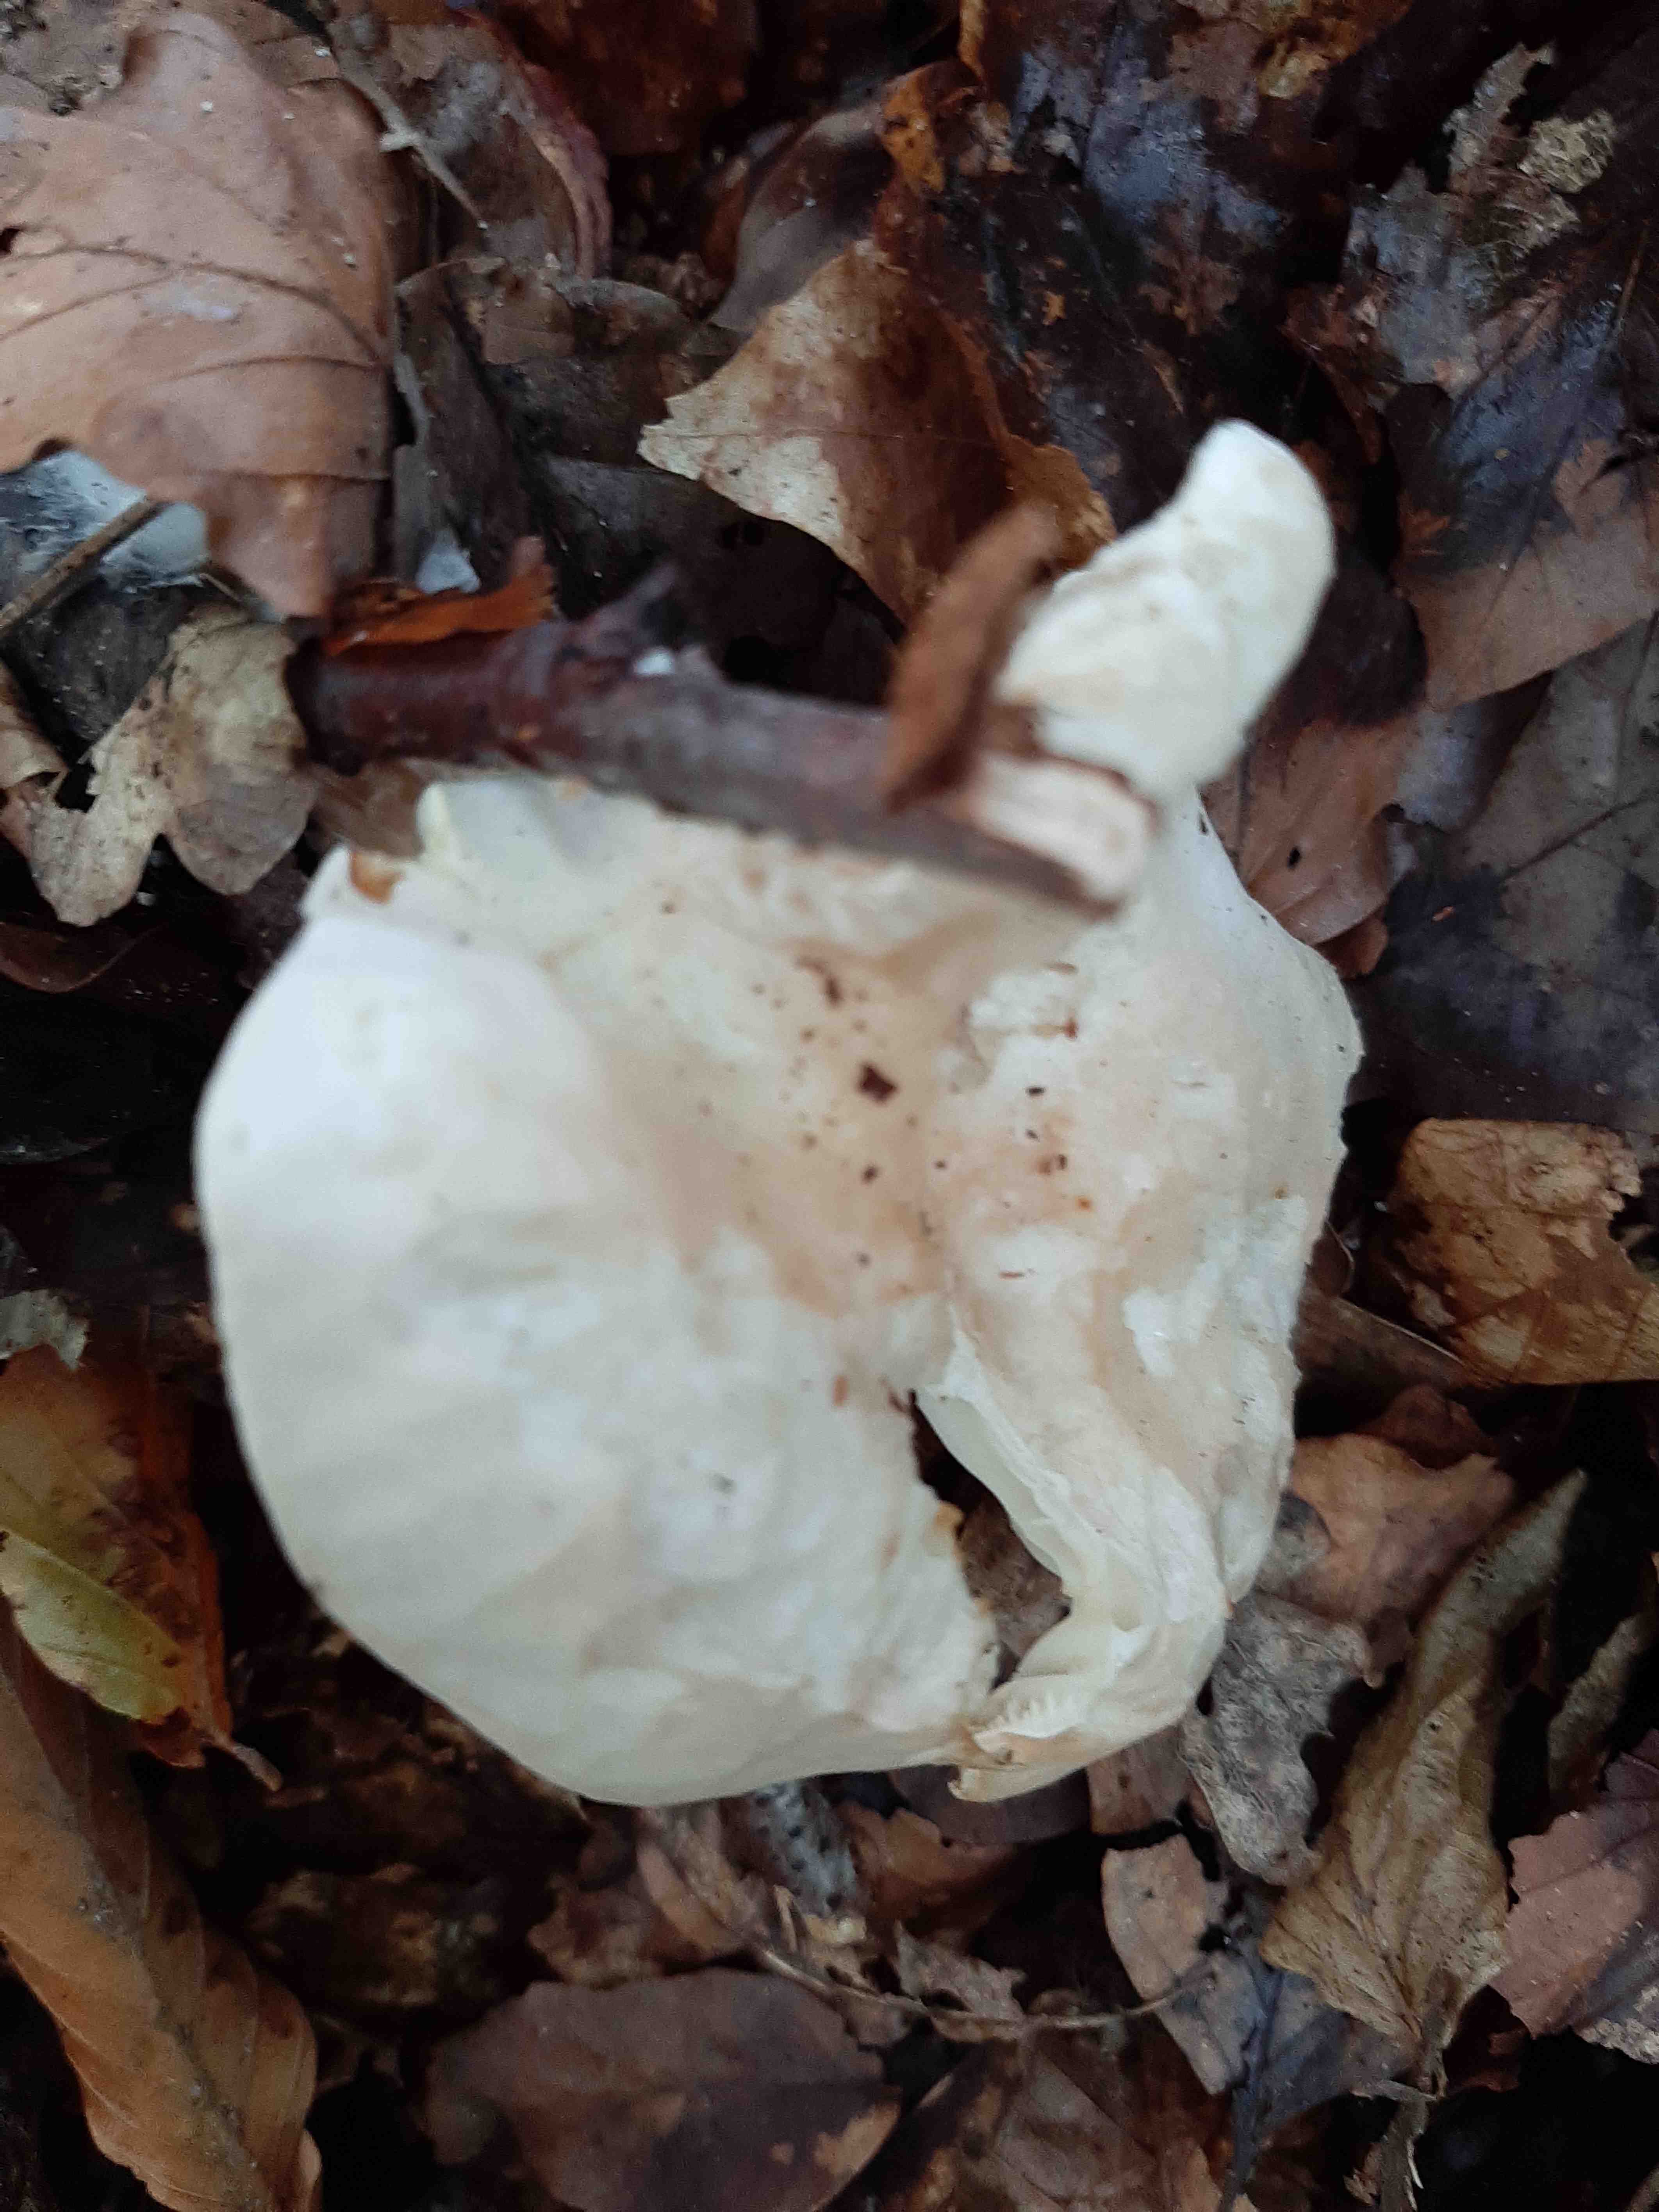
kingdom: Fungi
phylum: Basidiomycota
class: Agaricomycetes
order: Agaricales
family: Tricholomataceae
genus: Infundibulicybe
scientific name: Infundibulicybe gibba
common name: almindelig tragthat
